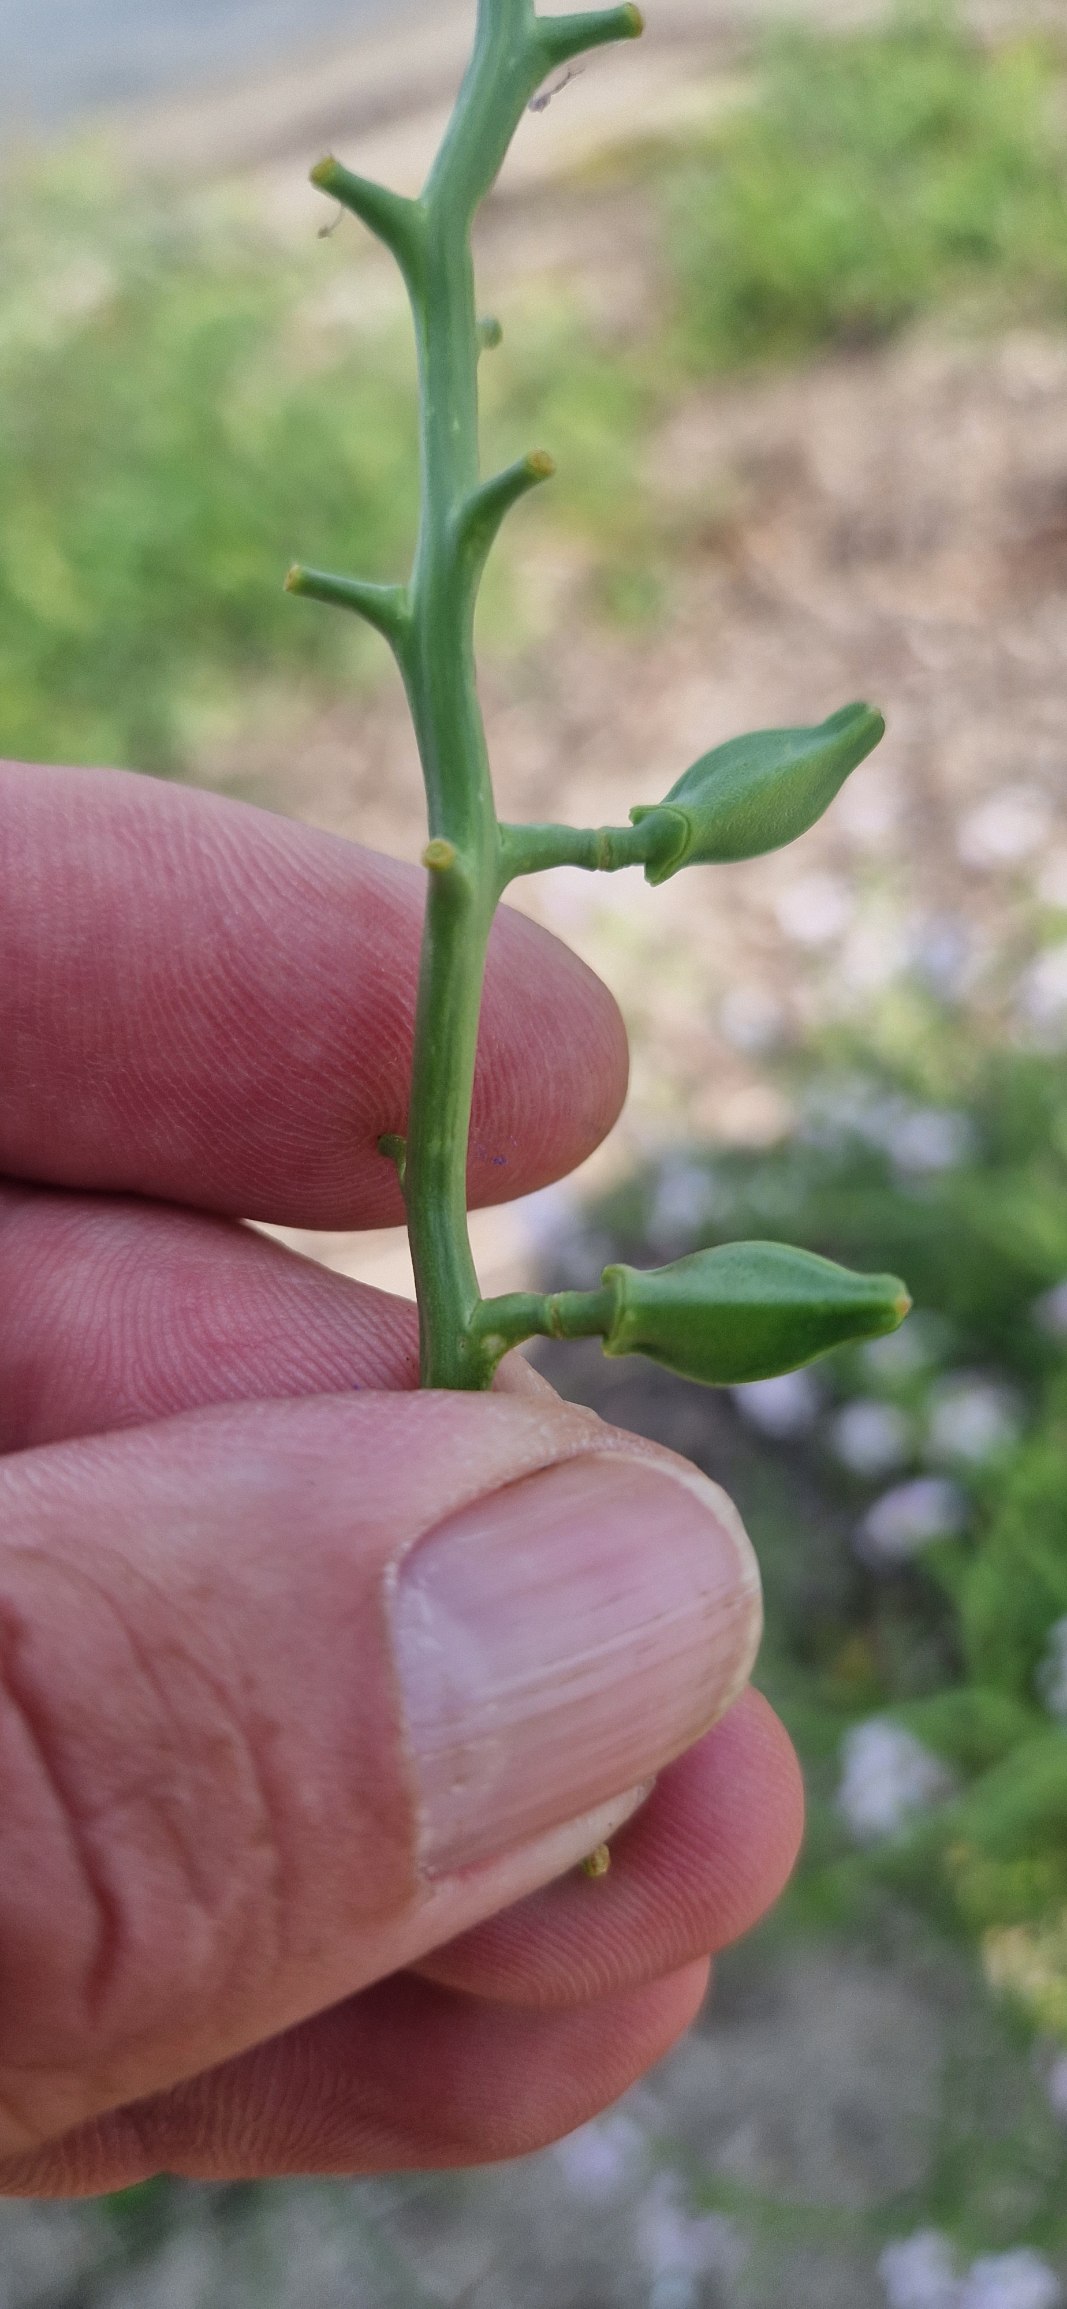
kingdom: Plantae
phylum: Tracheophyta
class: Magnoliopsida
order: Brassicales
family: Brassicaceae
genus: Cakile
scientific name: Cakile maritima
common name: Østersø-strandsennep
